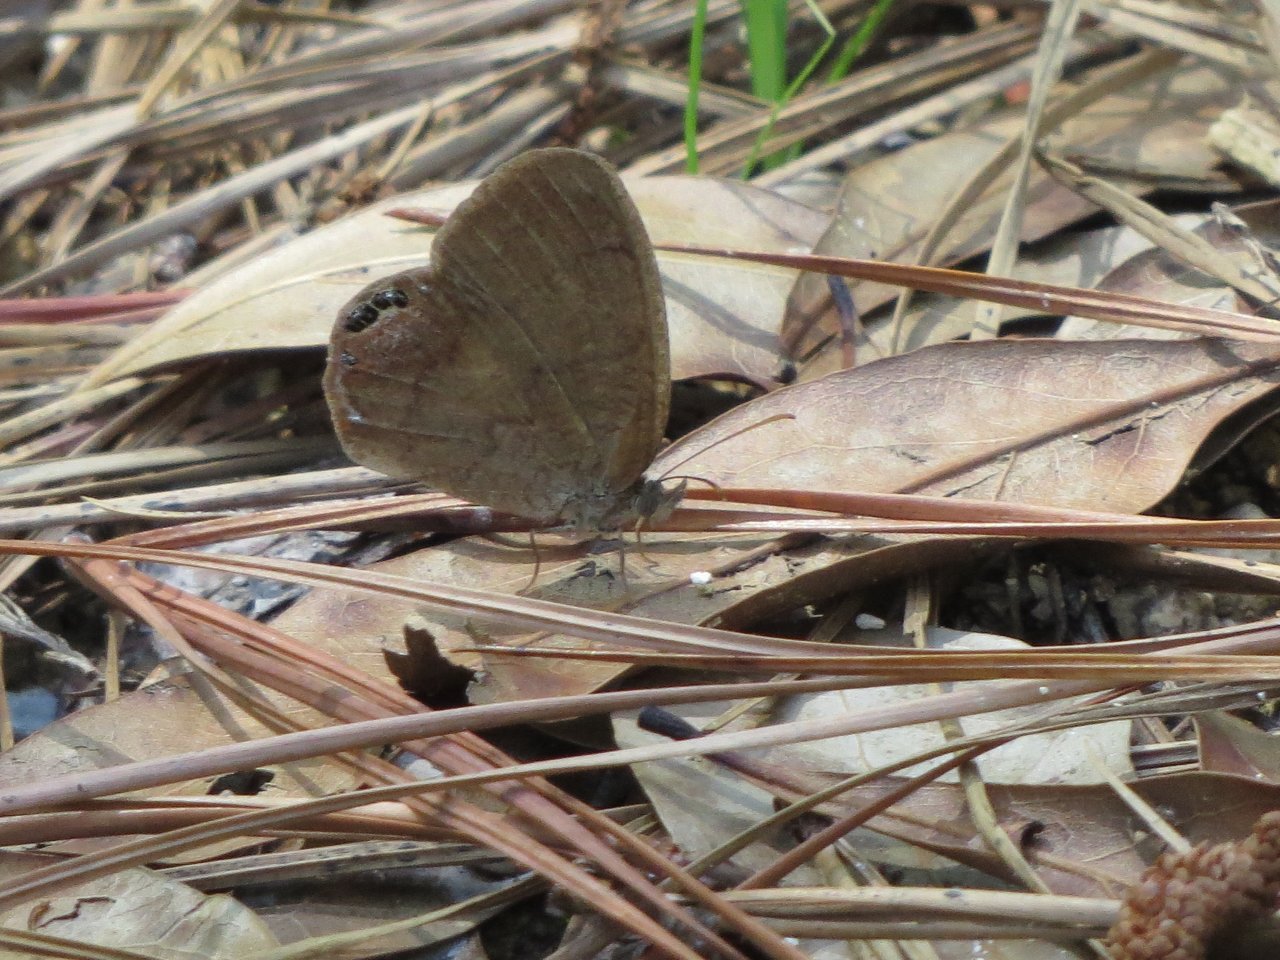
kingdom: Animalia
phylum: Arthropoda
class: Insecta
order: Lepidoptera
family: Nymphalidae
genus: Euptychia
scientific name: Euptychia cornelius
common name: Gemmed Satyr
